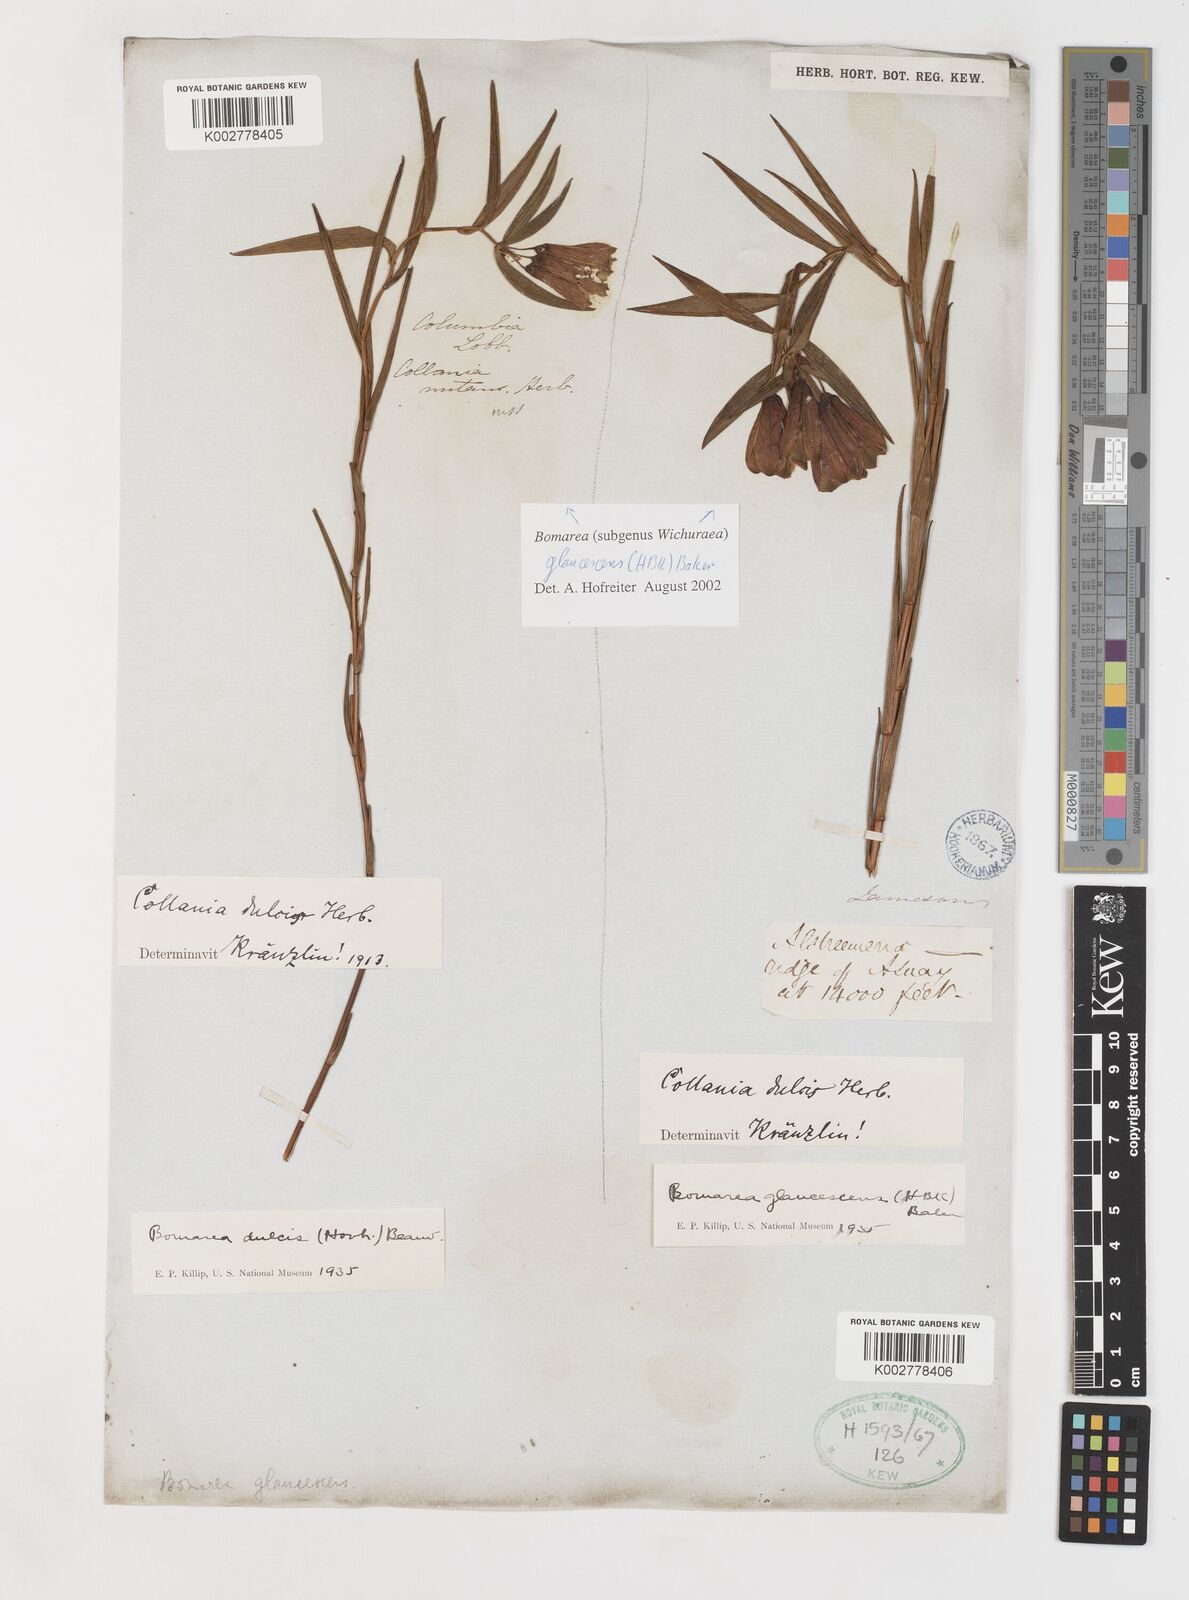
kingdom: Plantae
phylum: Tracheophyta
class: Liliopsida
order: Liliales
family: Alstroemeriaceae
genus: Bomarea
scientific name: Bomarea glaucescens
